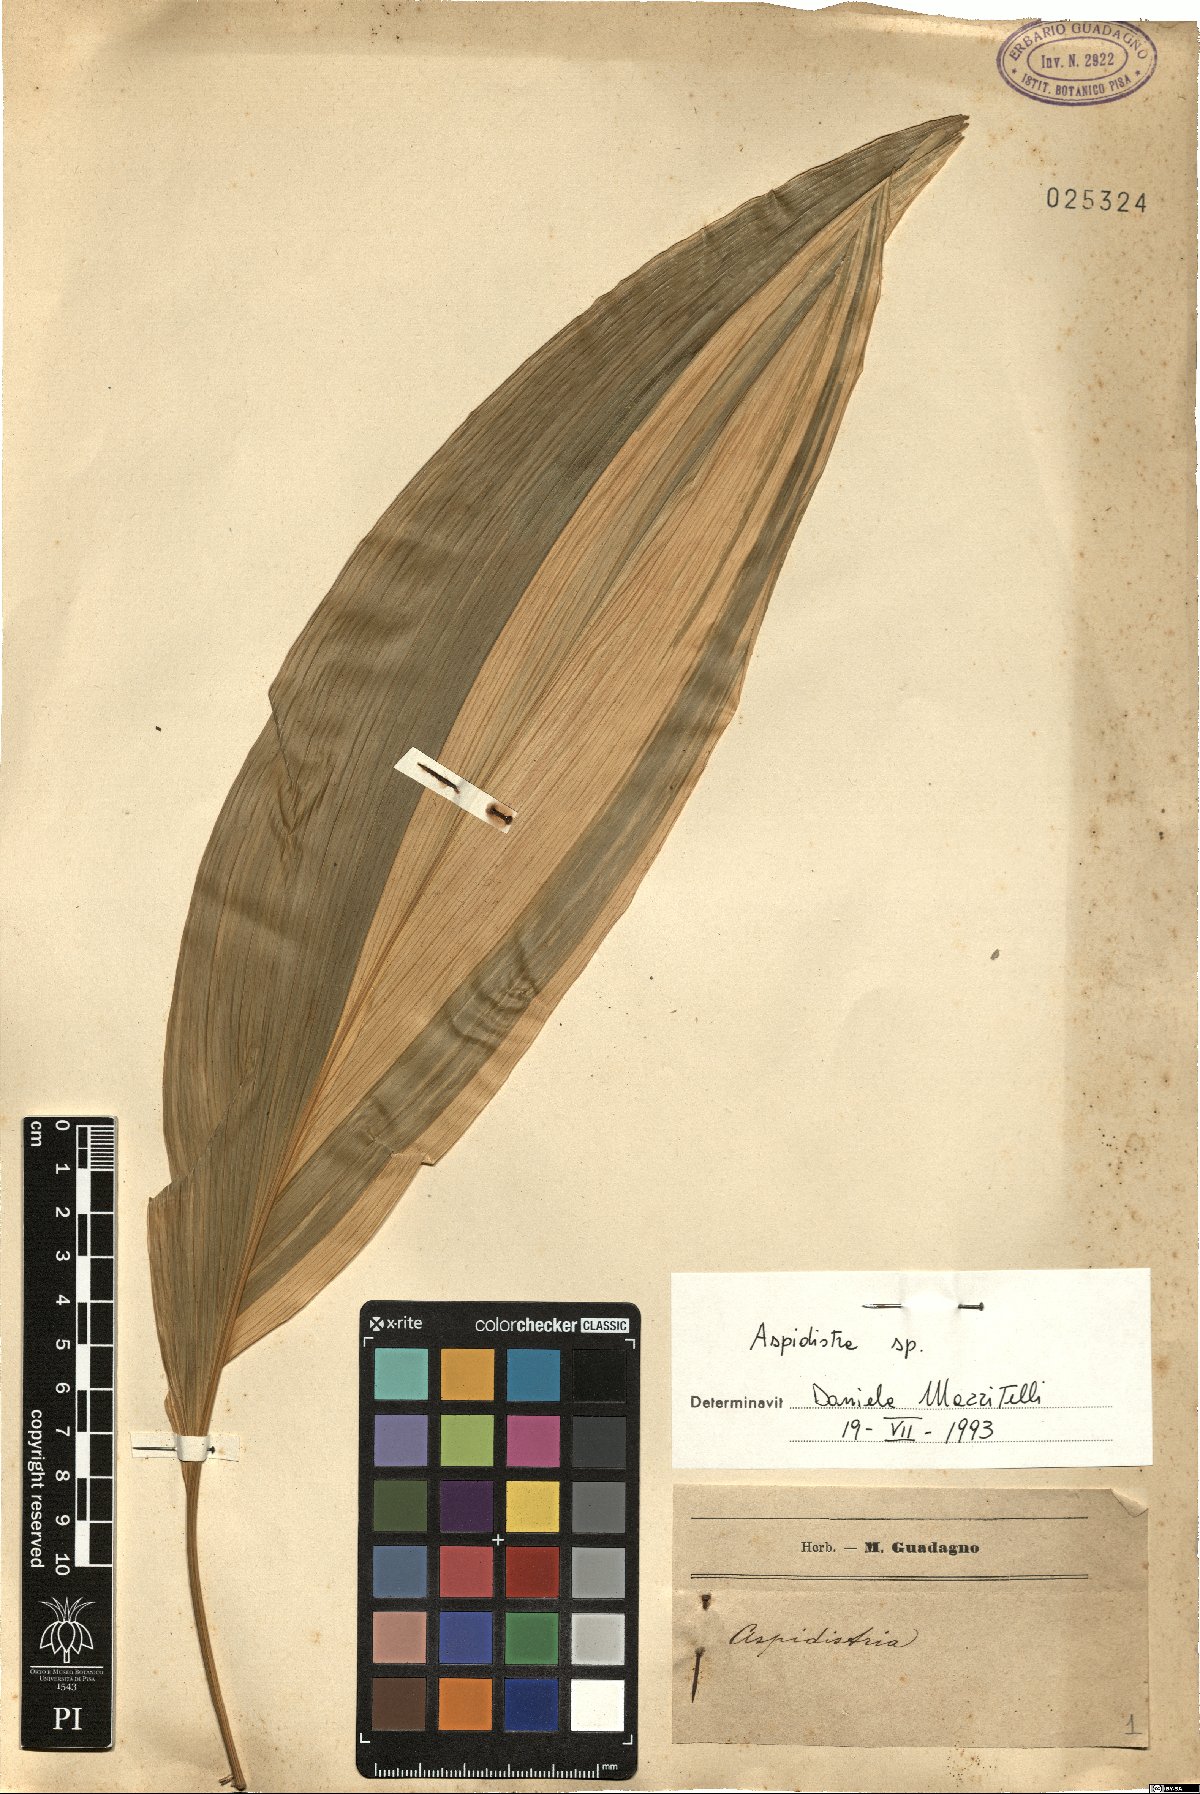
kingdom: Plantae
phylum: Tracheophyta
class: Liliopsida
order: Asparagales
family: Asparagaceae
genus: Aspidistra
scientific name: Aspidistra
